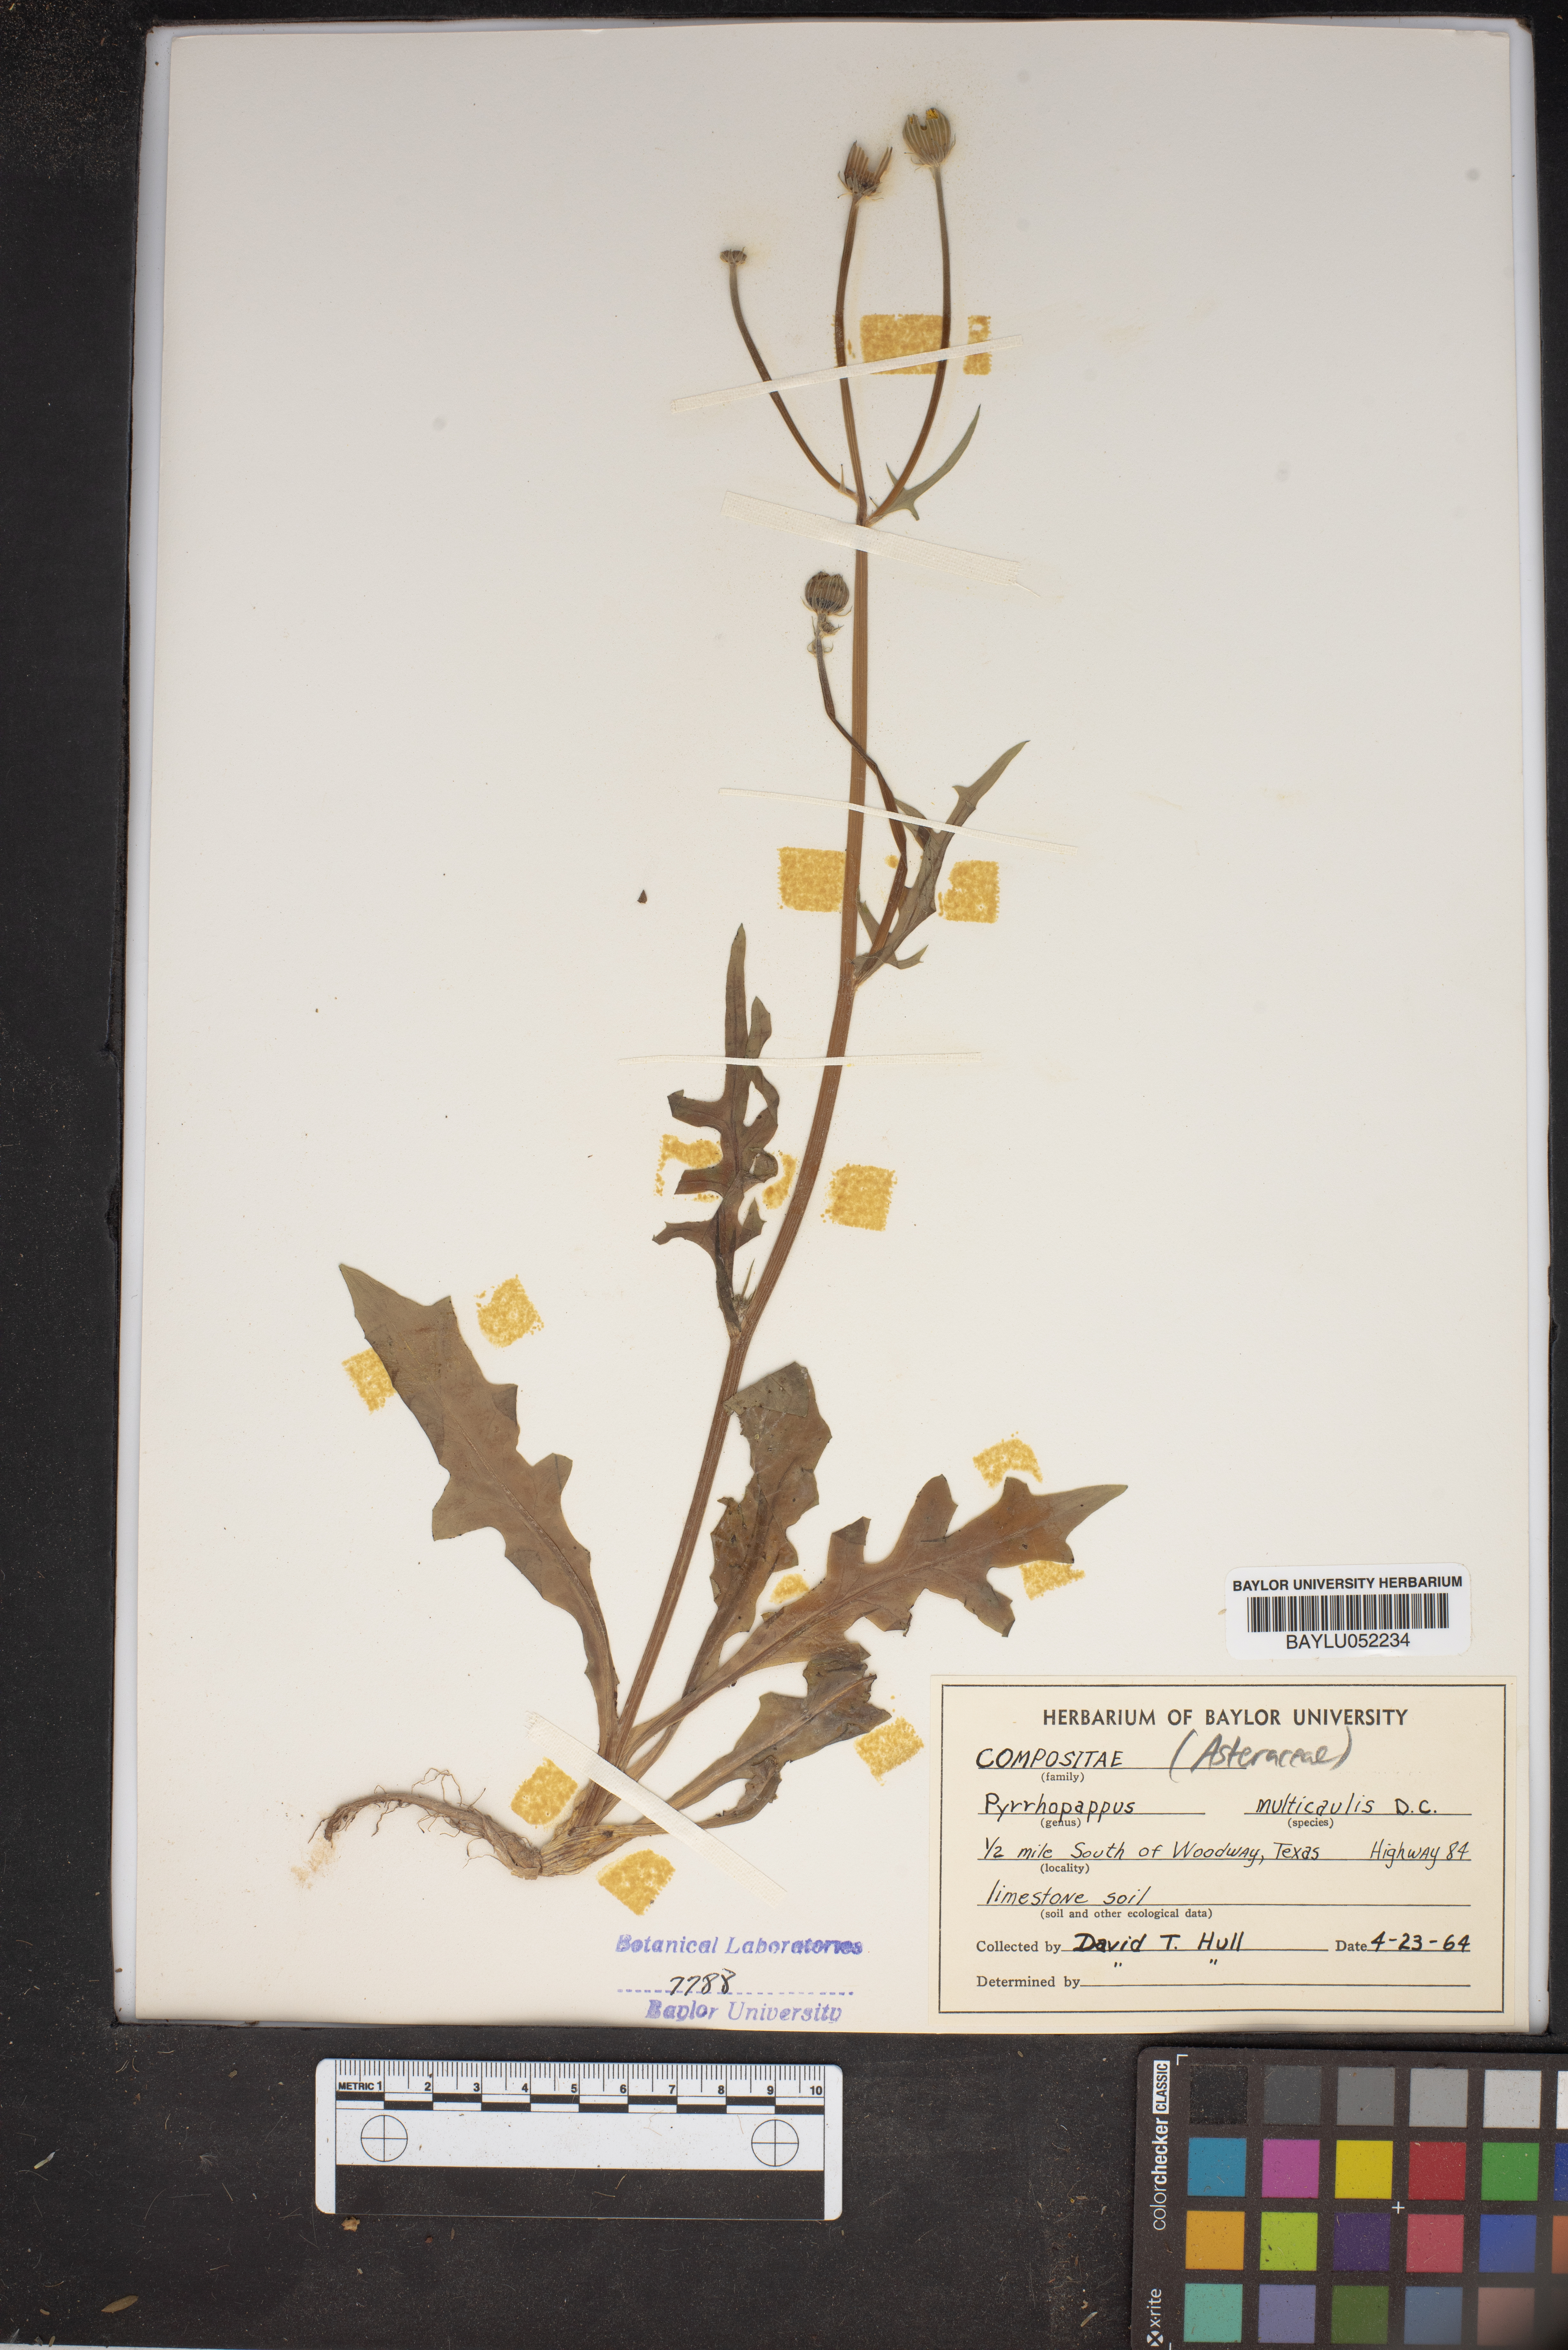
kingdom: Plantae
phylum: Tracheophyta
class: Magnoliopsida
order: Asterales
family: Asteraceae
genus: Pyrrhopappus
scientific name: Pyrrhopappus pauciflorus
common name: Texas false dandelion
